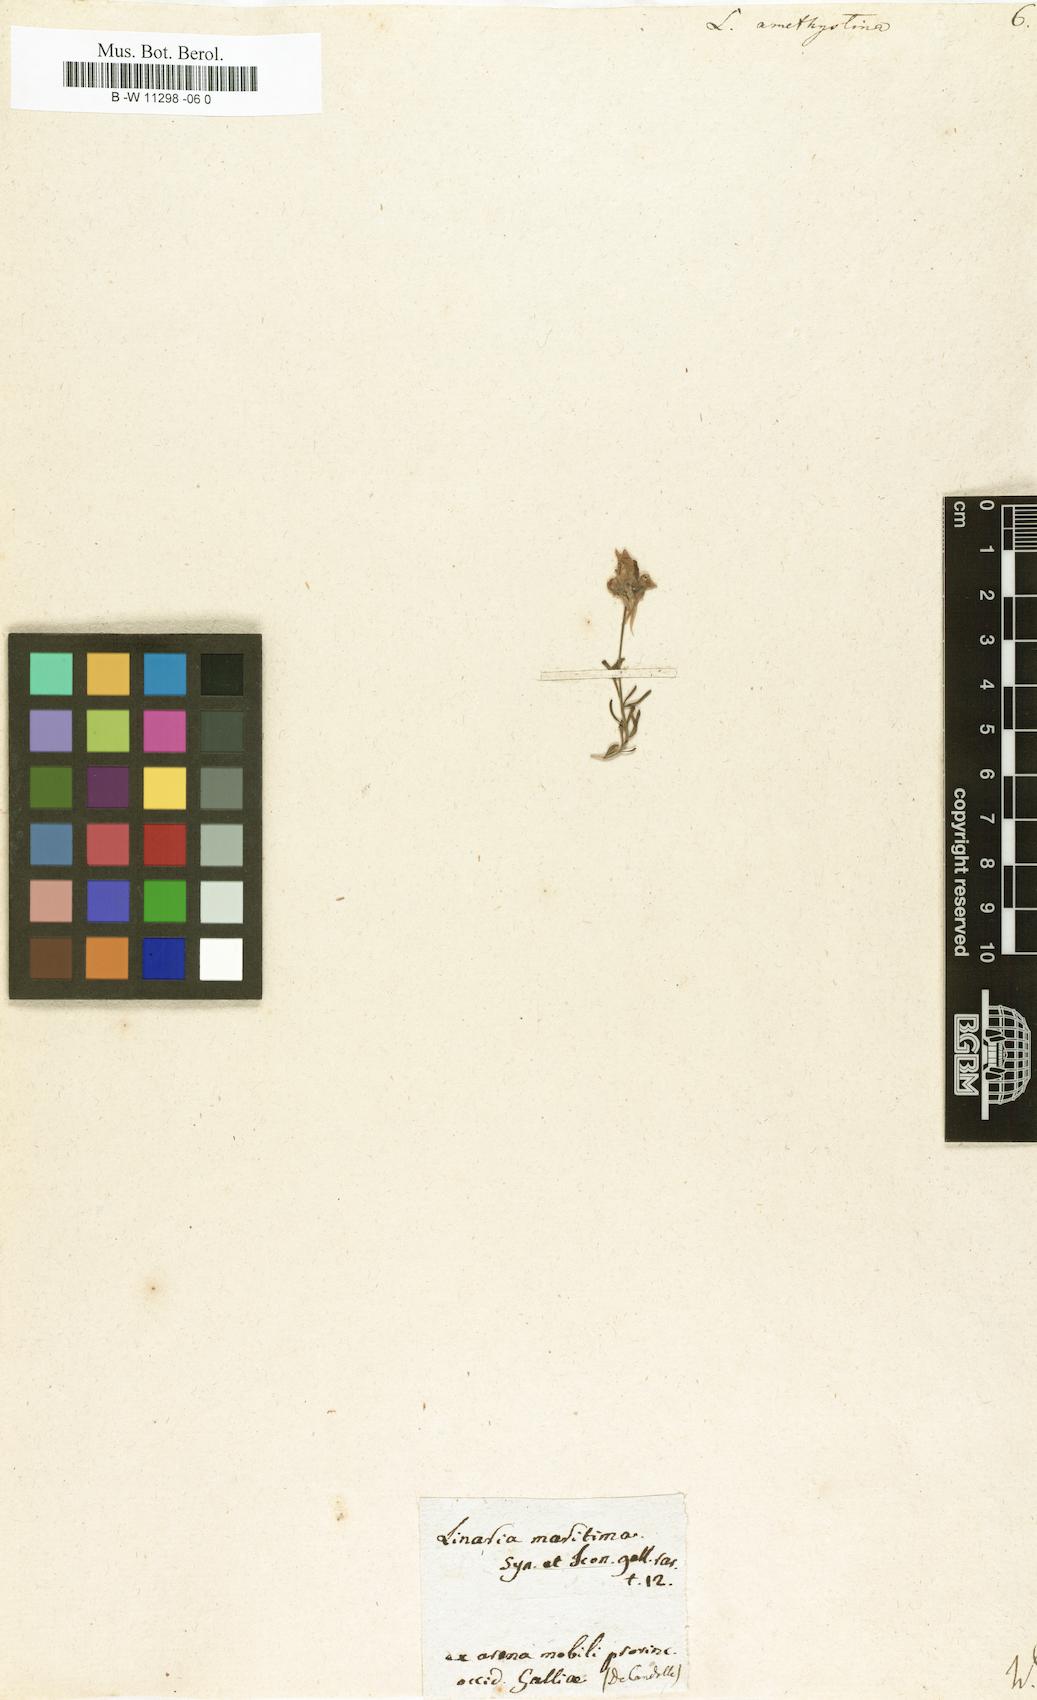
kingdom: Plantae
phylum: Tracheophyta
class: Magnoliopsida
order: Lamiales
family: Plantaginaceae
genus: Linaria
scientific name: Linaria incarnata
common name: Annual toadflax
